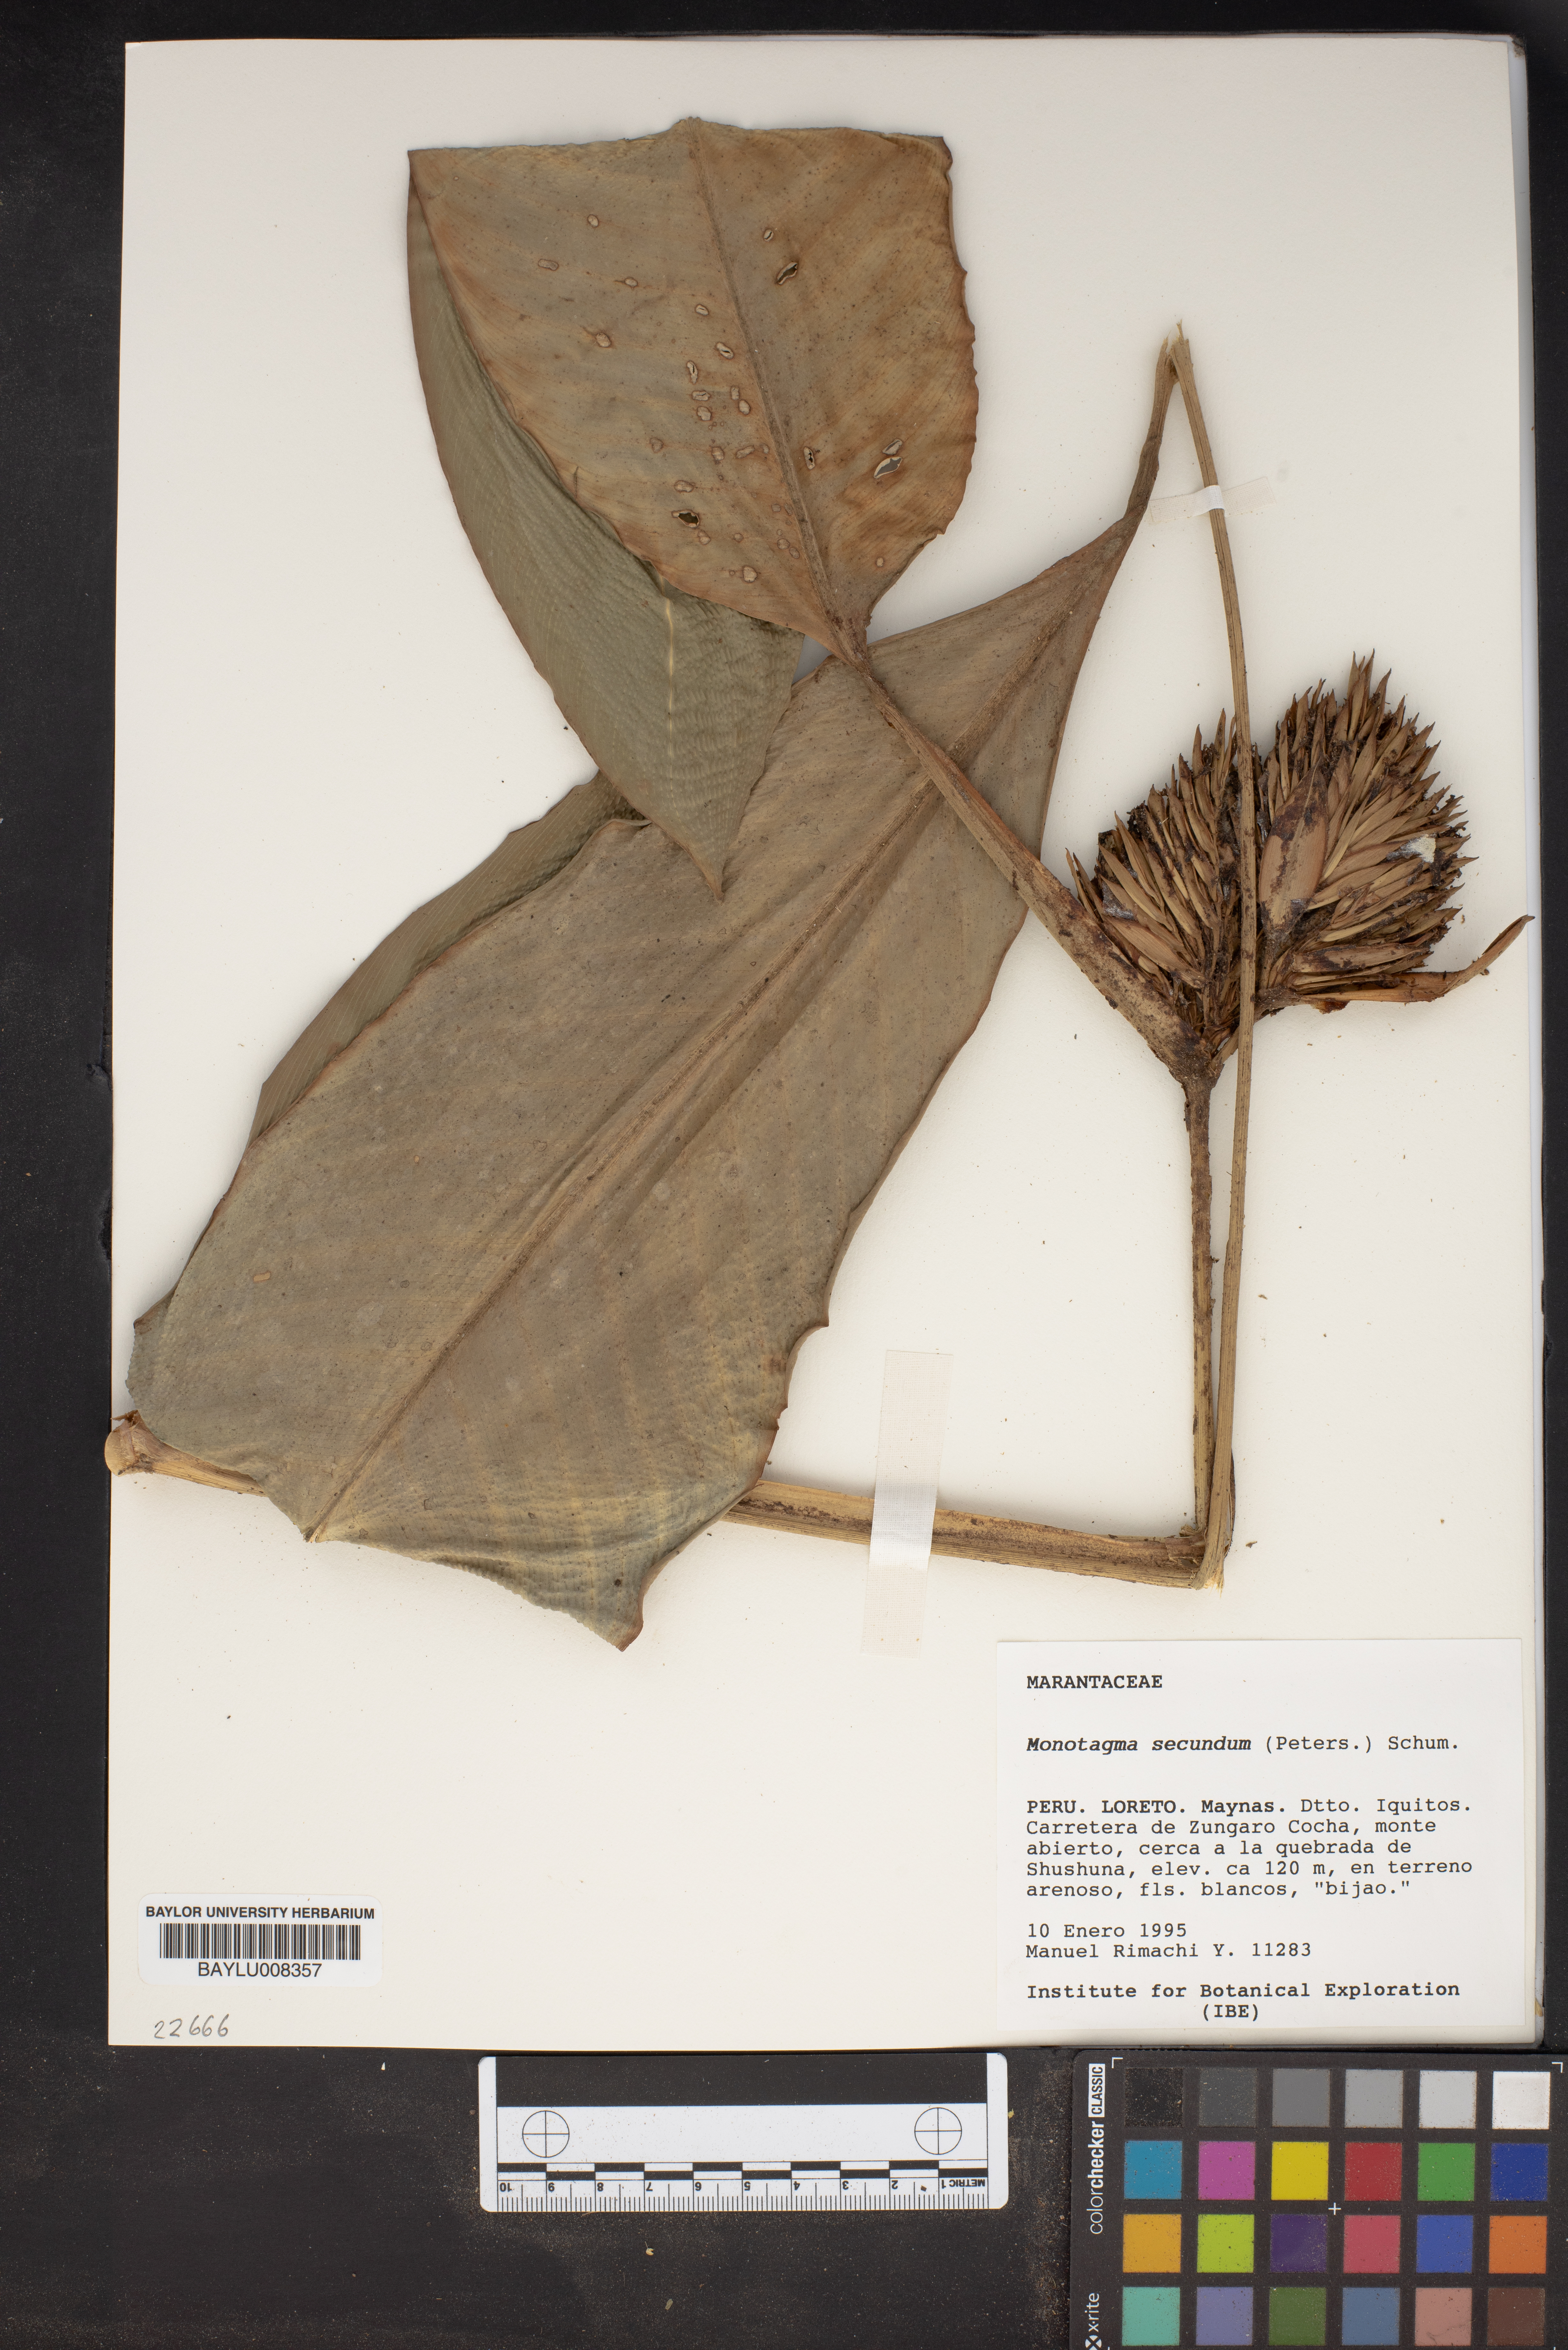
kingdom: Plantae
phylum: Tracheophyta
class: Liliopsida
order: Zingiberales
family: Marantaceae
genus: Monotagma
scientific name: Monotagma secundum
